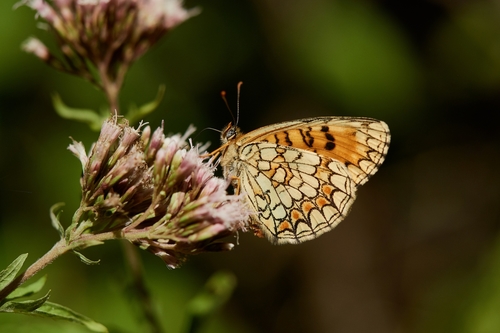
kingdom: Animalia
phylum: Arthropoda
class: Insecta
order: Lepidoptera
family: Nymphalidae
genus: Mellicta
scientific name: Mellicta athalia
